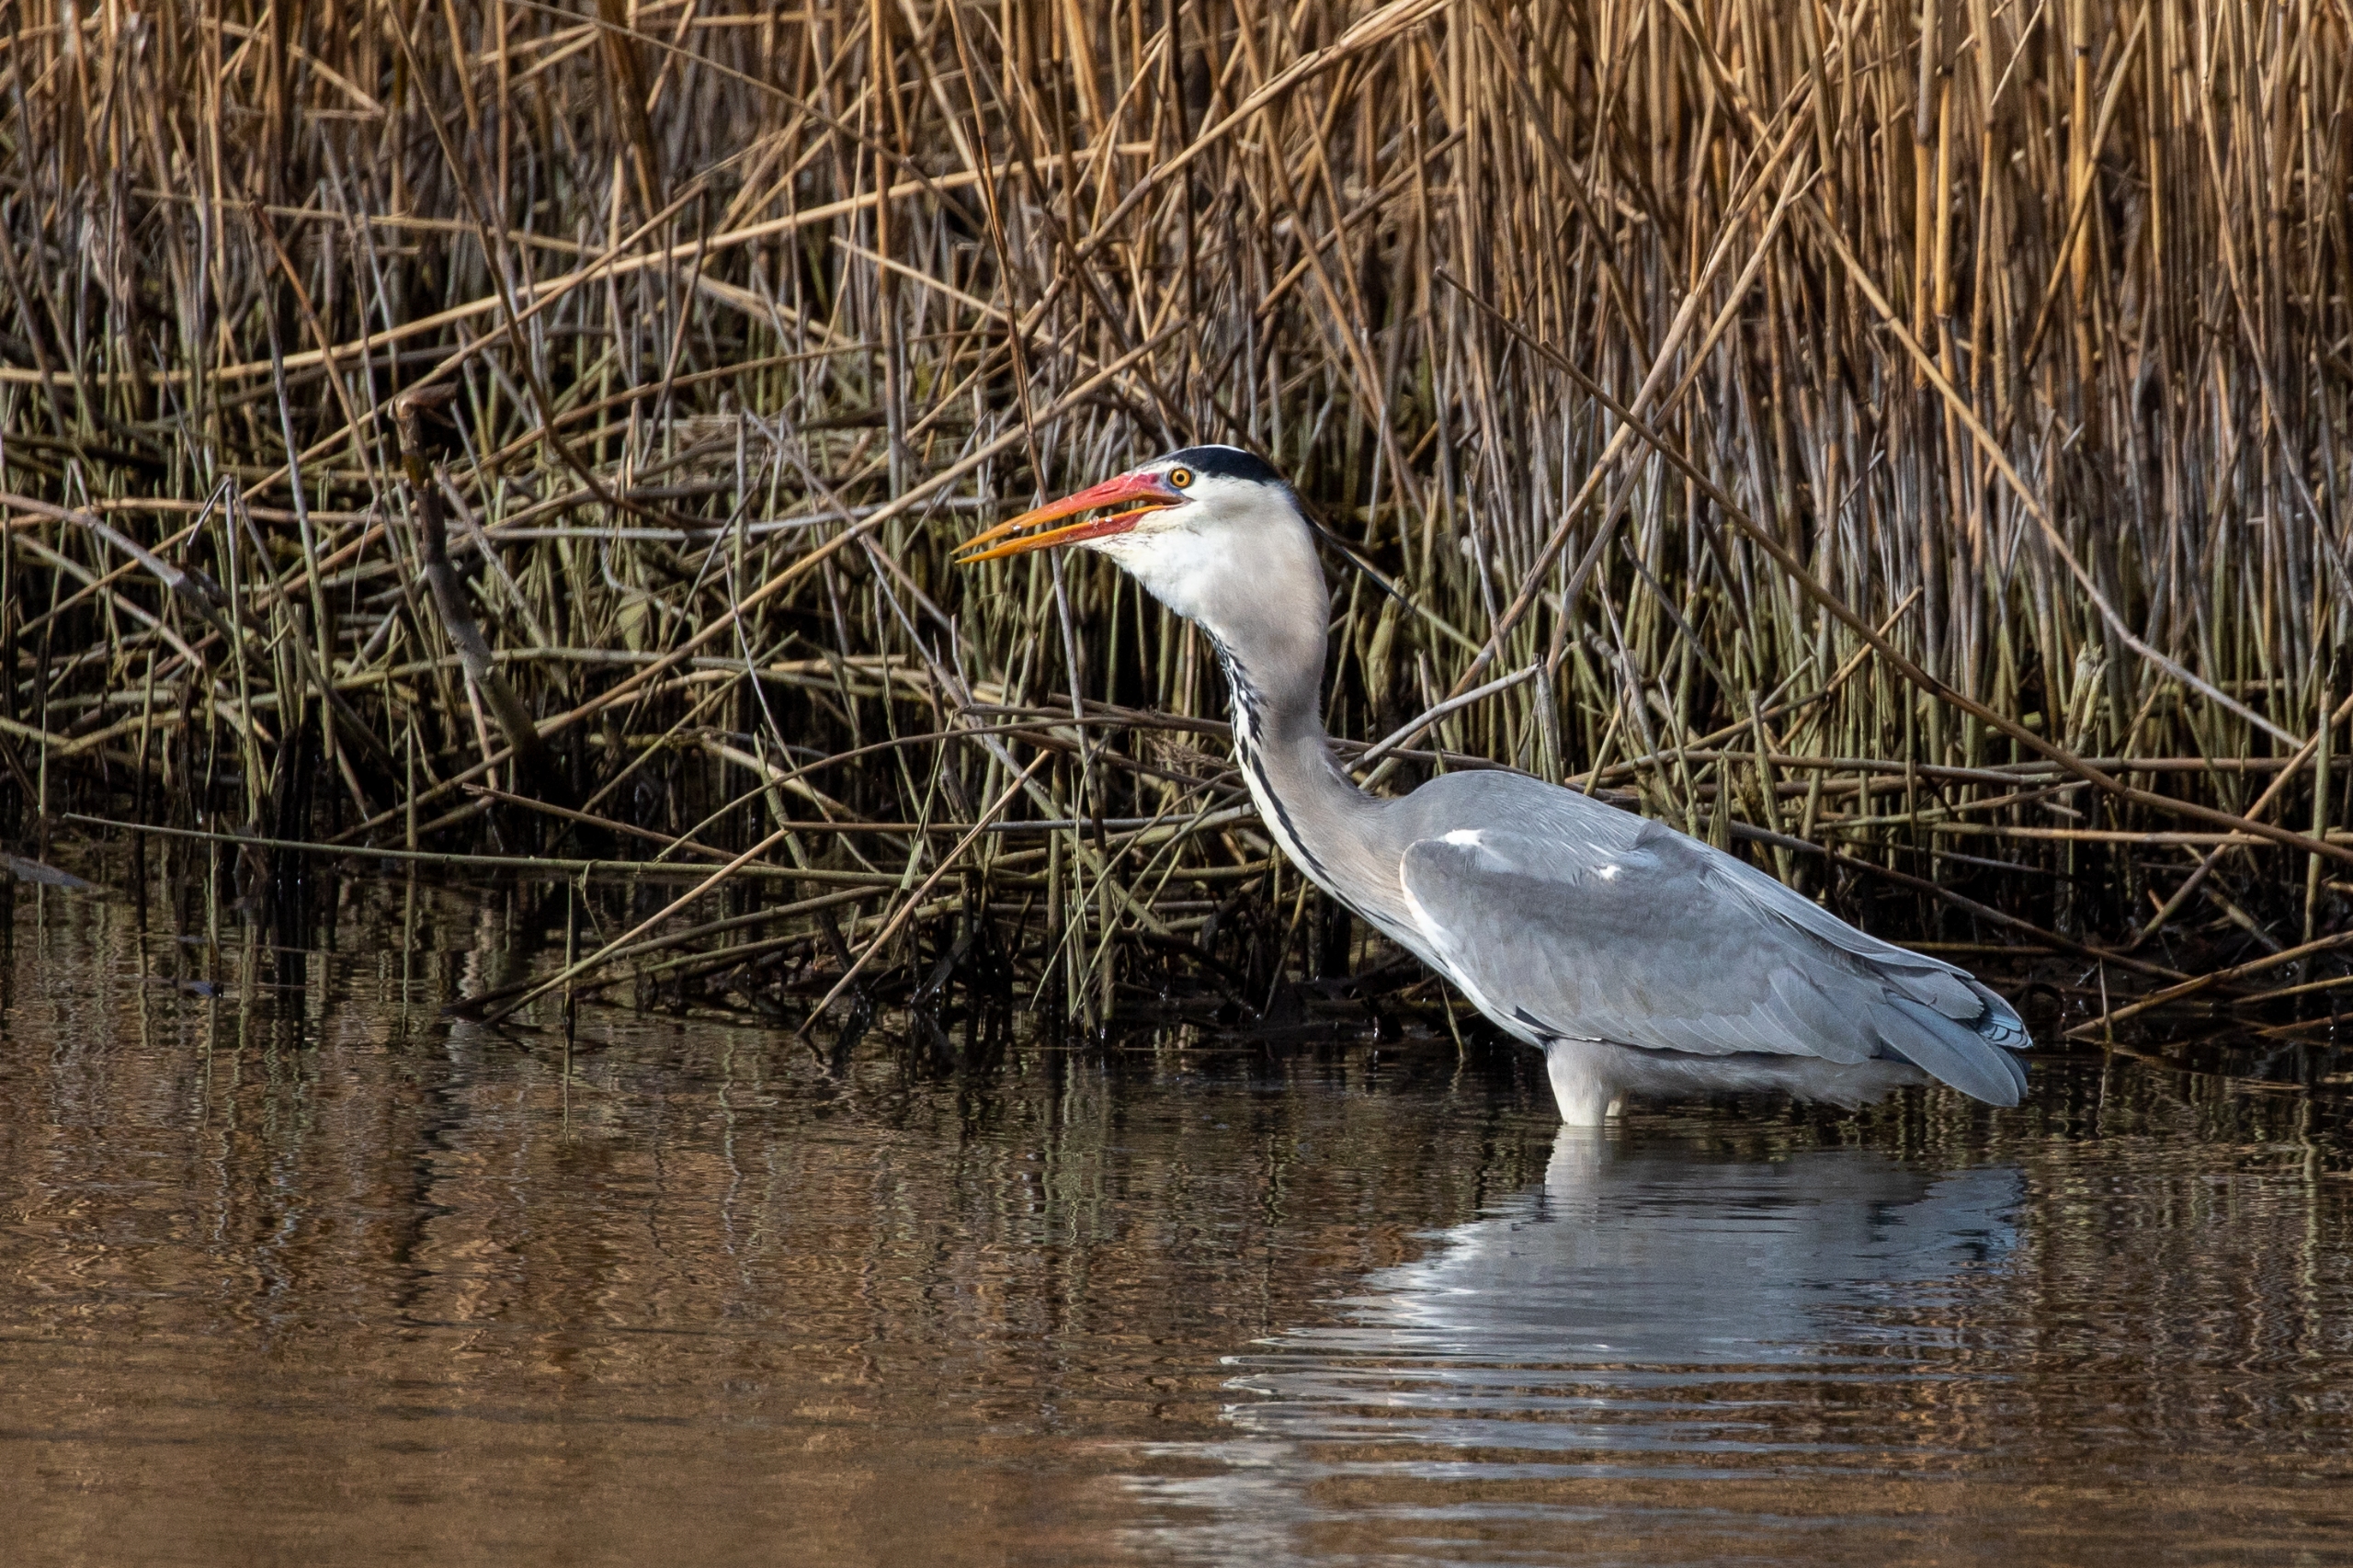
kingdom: Animalia
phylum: Chordata
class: Aves
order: Pelecaniformes
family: Ardeidae
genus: Ardea
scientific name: Ardea cinerea
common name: Fiskehejre
